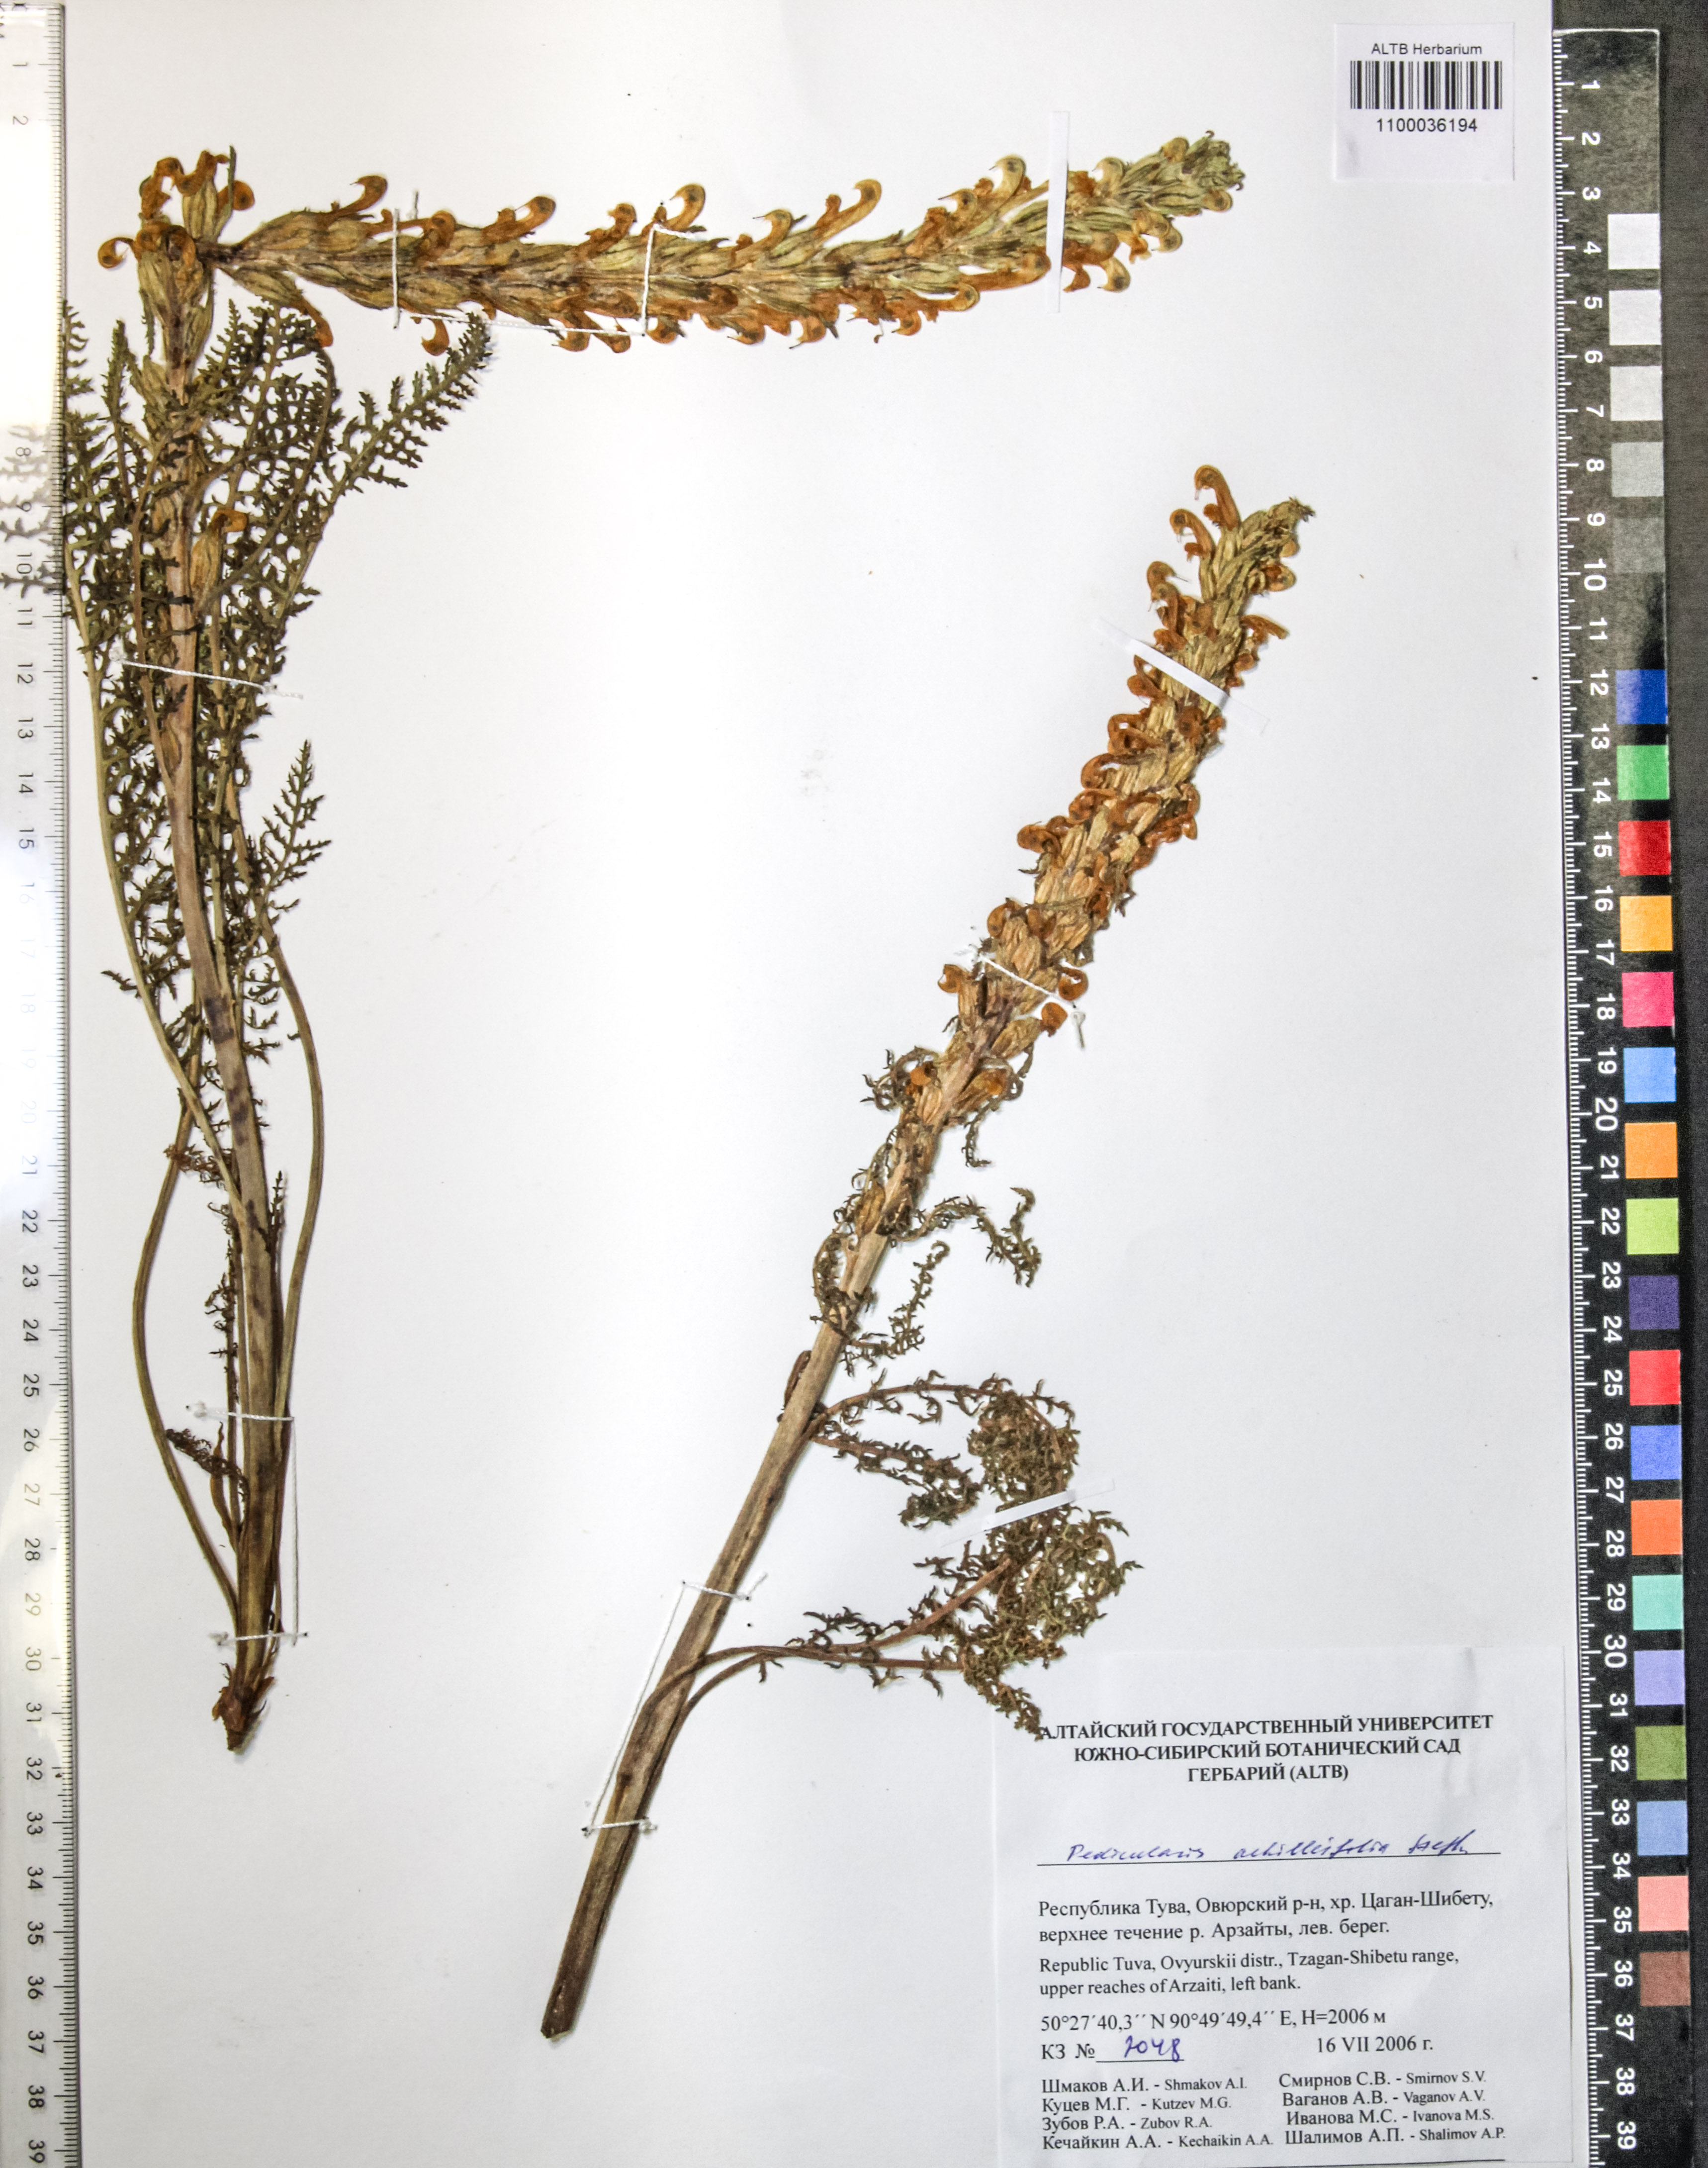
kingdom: Plantae
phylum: Tracheophyta
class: Magnoliopsida
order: Lamiales
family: Orobanchaceae
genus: Pedicularis
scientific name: Pedicularis achilleifolia
